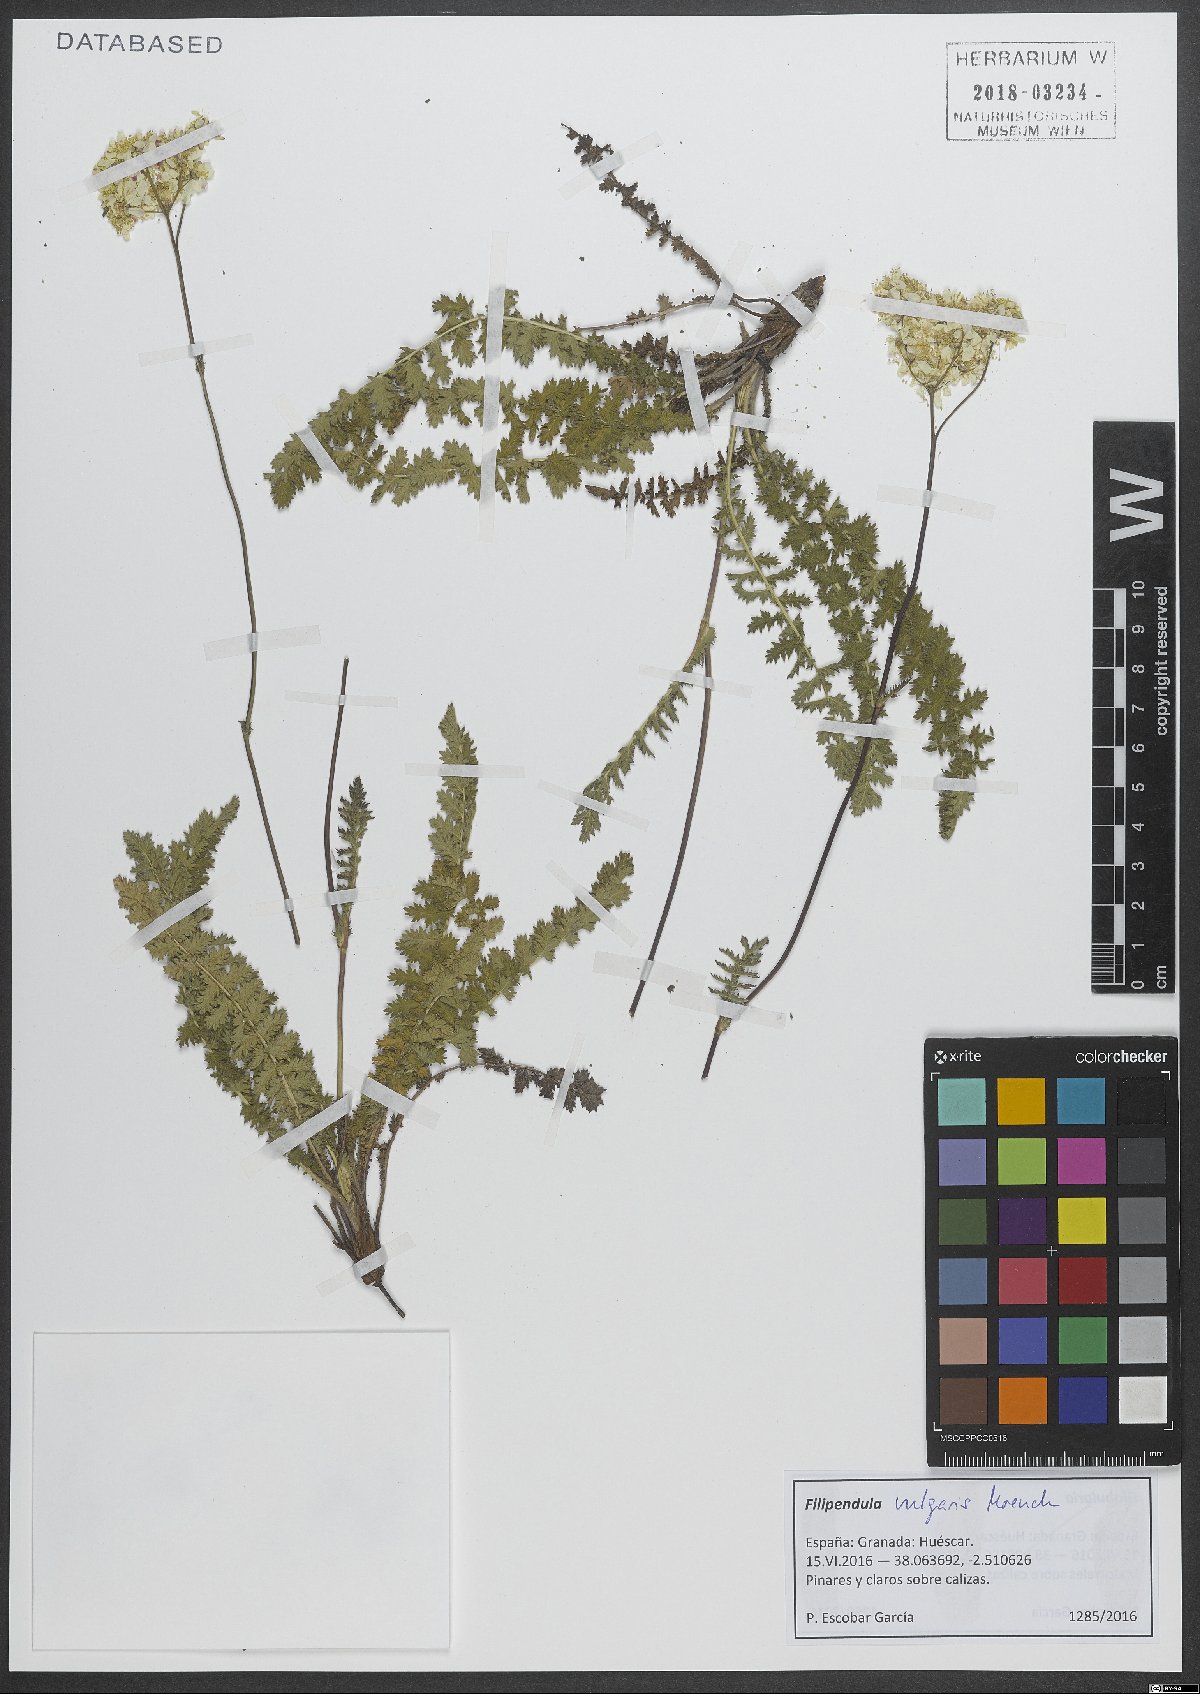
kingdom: Plantae
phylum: Tracheophyta
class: Magnoliopsida
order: Rosales
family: Rosaceae
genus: Filipendula
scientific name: Filipendula vulgaris
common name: Dropwort
